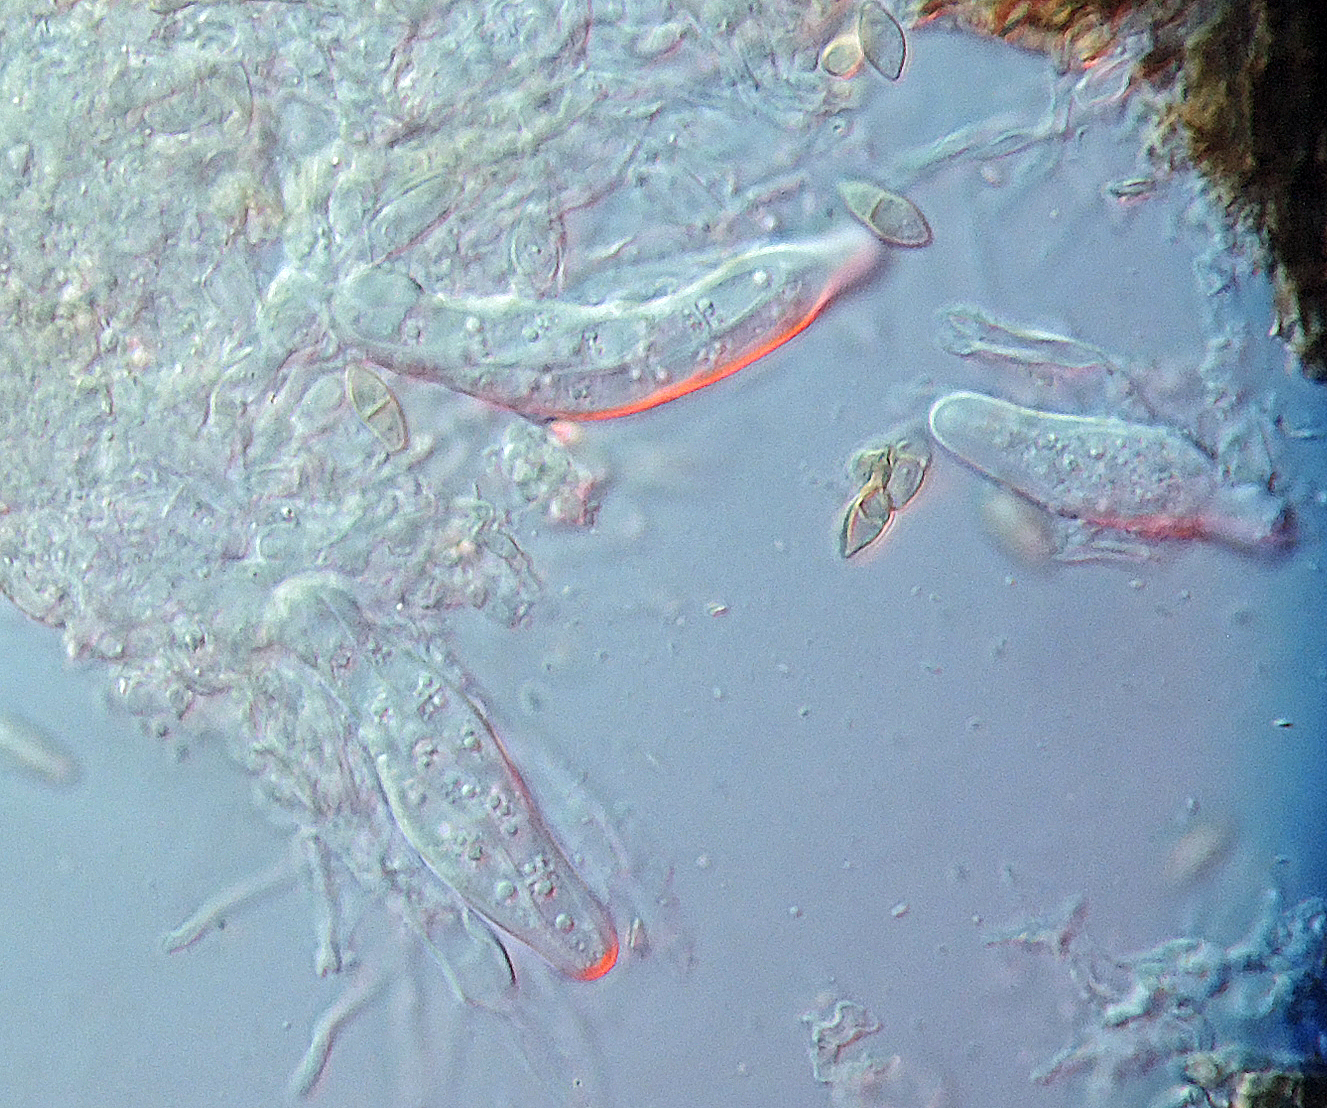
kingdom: Fungi
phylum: Ascomycota
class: Dothideomycetes
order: Mycosphaerellales
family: Mycosphaerellaceae
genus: Mycosphaerella
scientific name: Mycosphaerella lineolata
